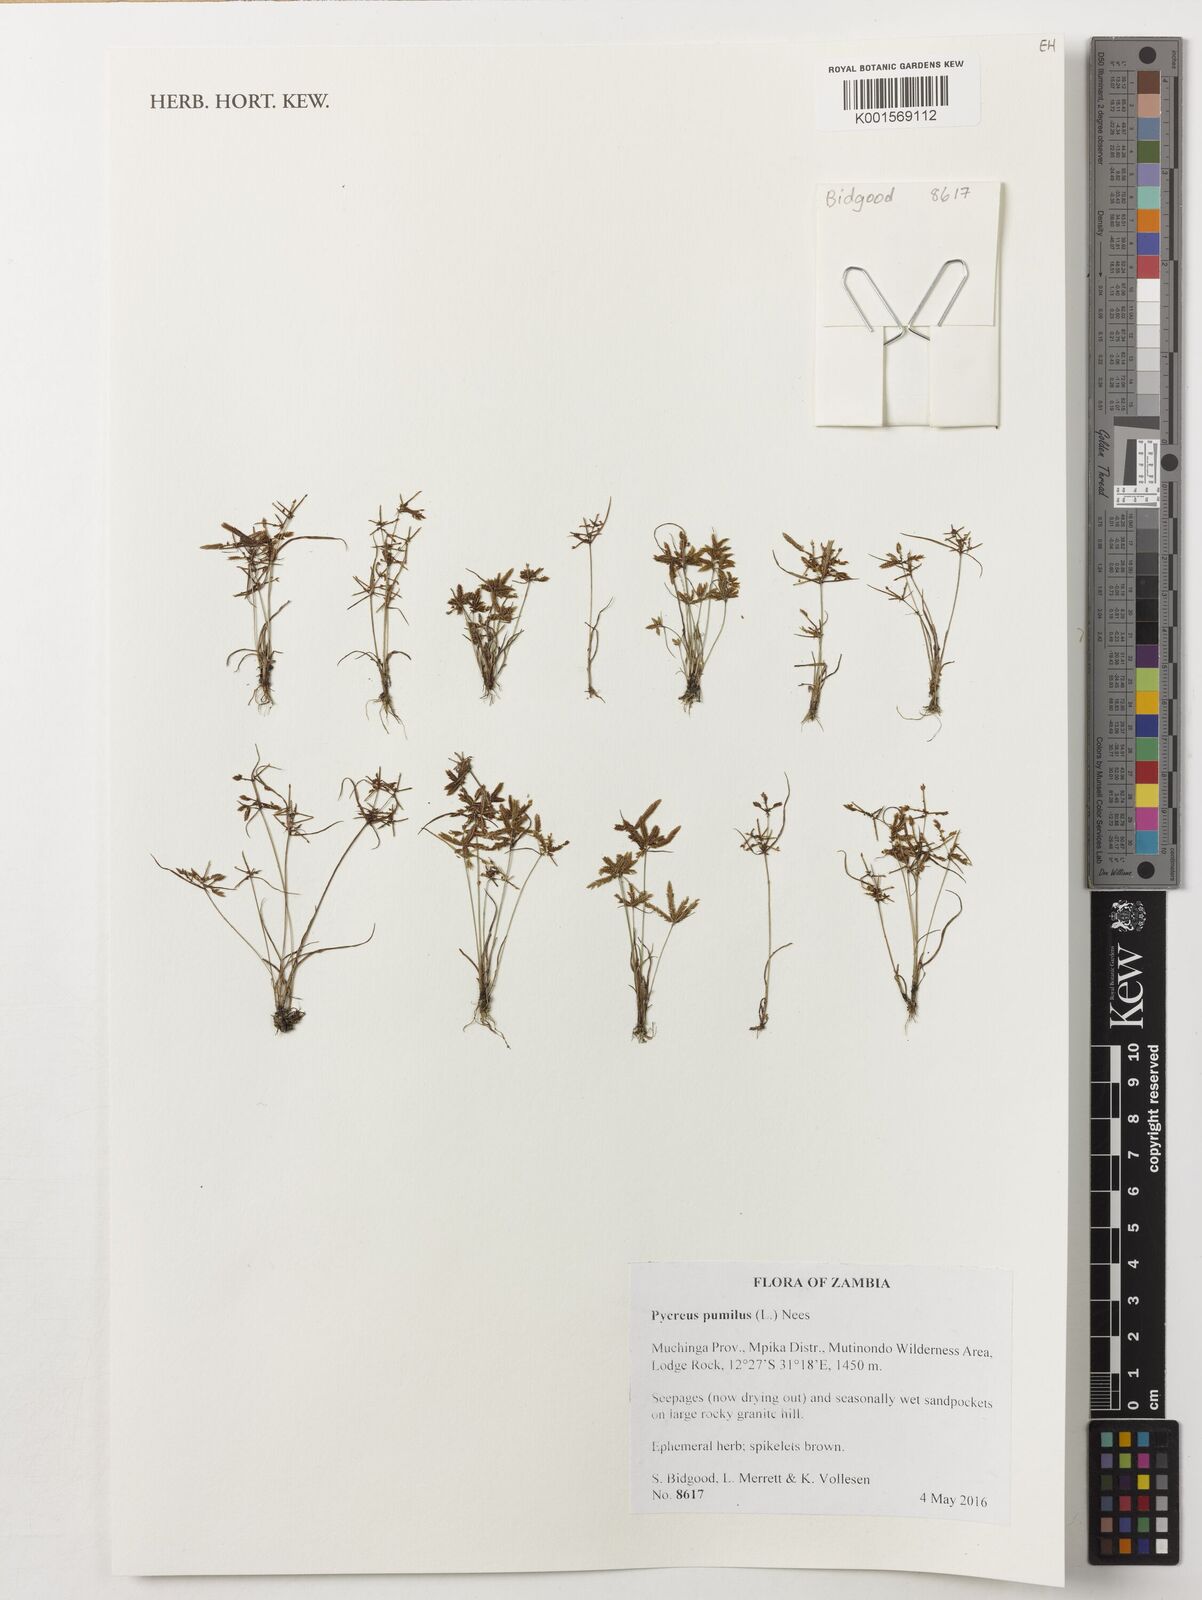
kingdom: Plantae
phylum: Tracheophyta
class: Liliopsida
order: Poales
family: Cyperaceae
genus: Cyperus
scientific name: Cyperus pumilus
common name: Low flatsedge
